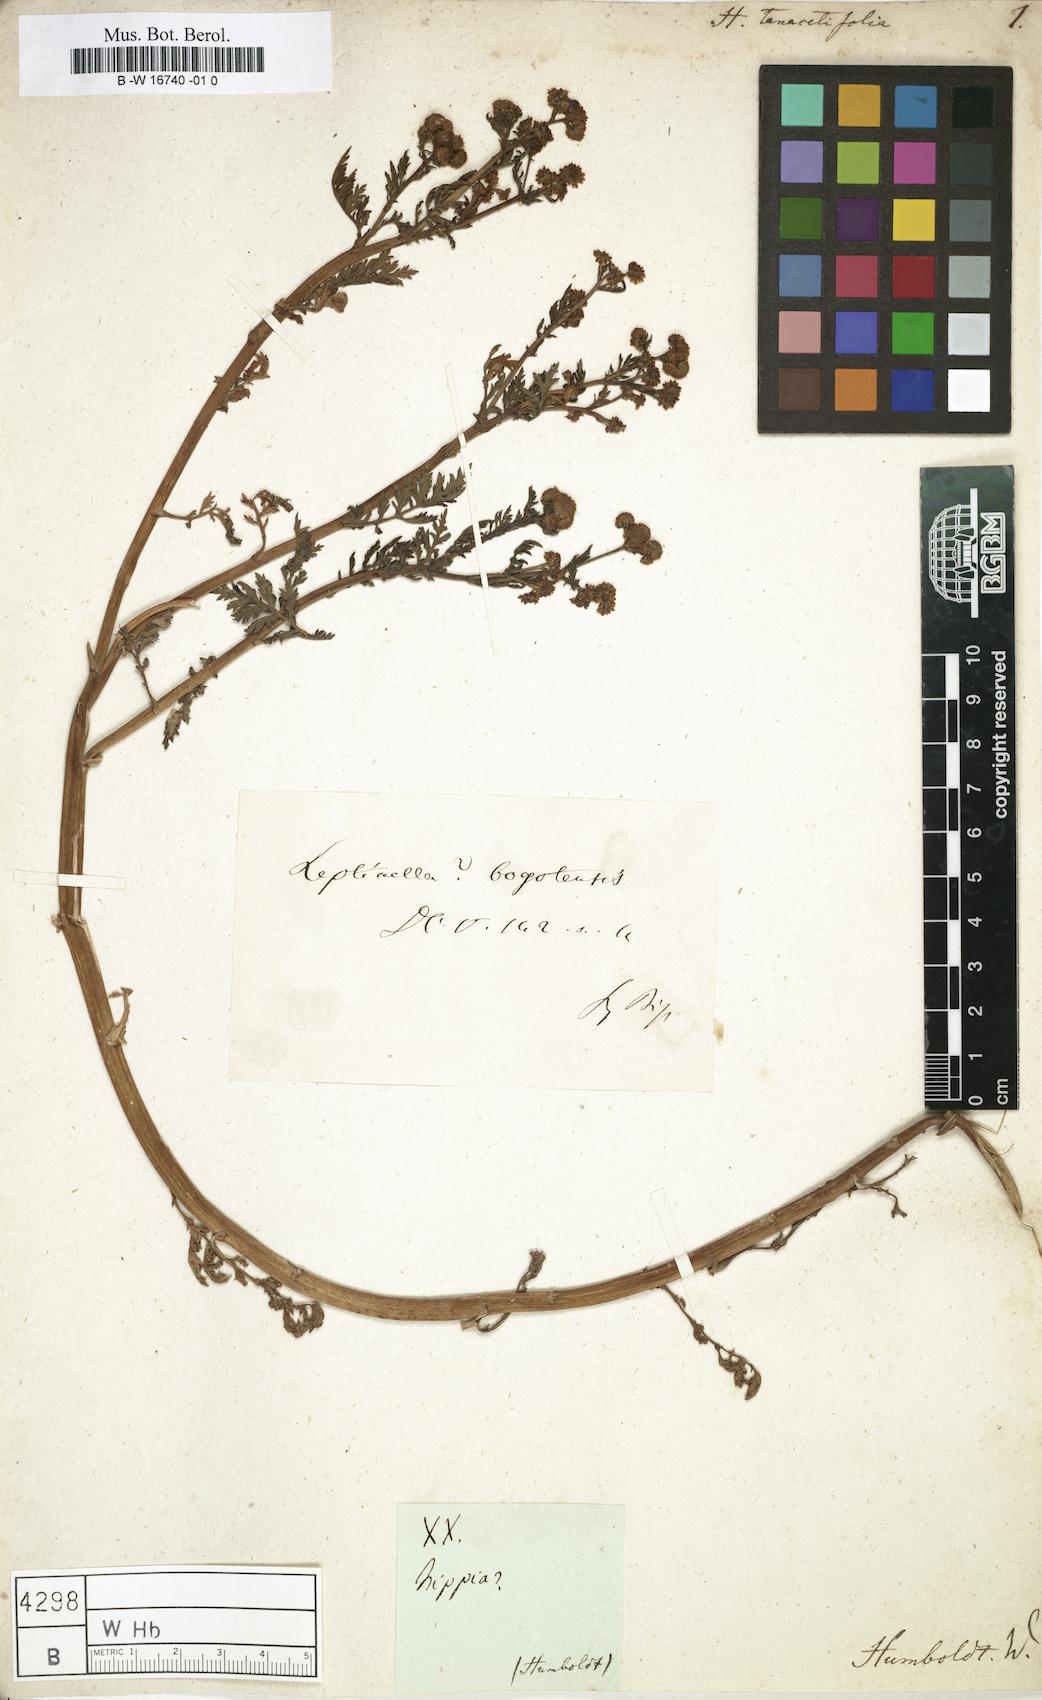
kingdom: Plantae
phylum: Tracheophyta
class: Magnoliopsida
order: Asterales
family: Asteraceae
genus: Hippia
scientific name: Hippia
